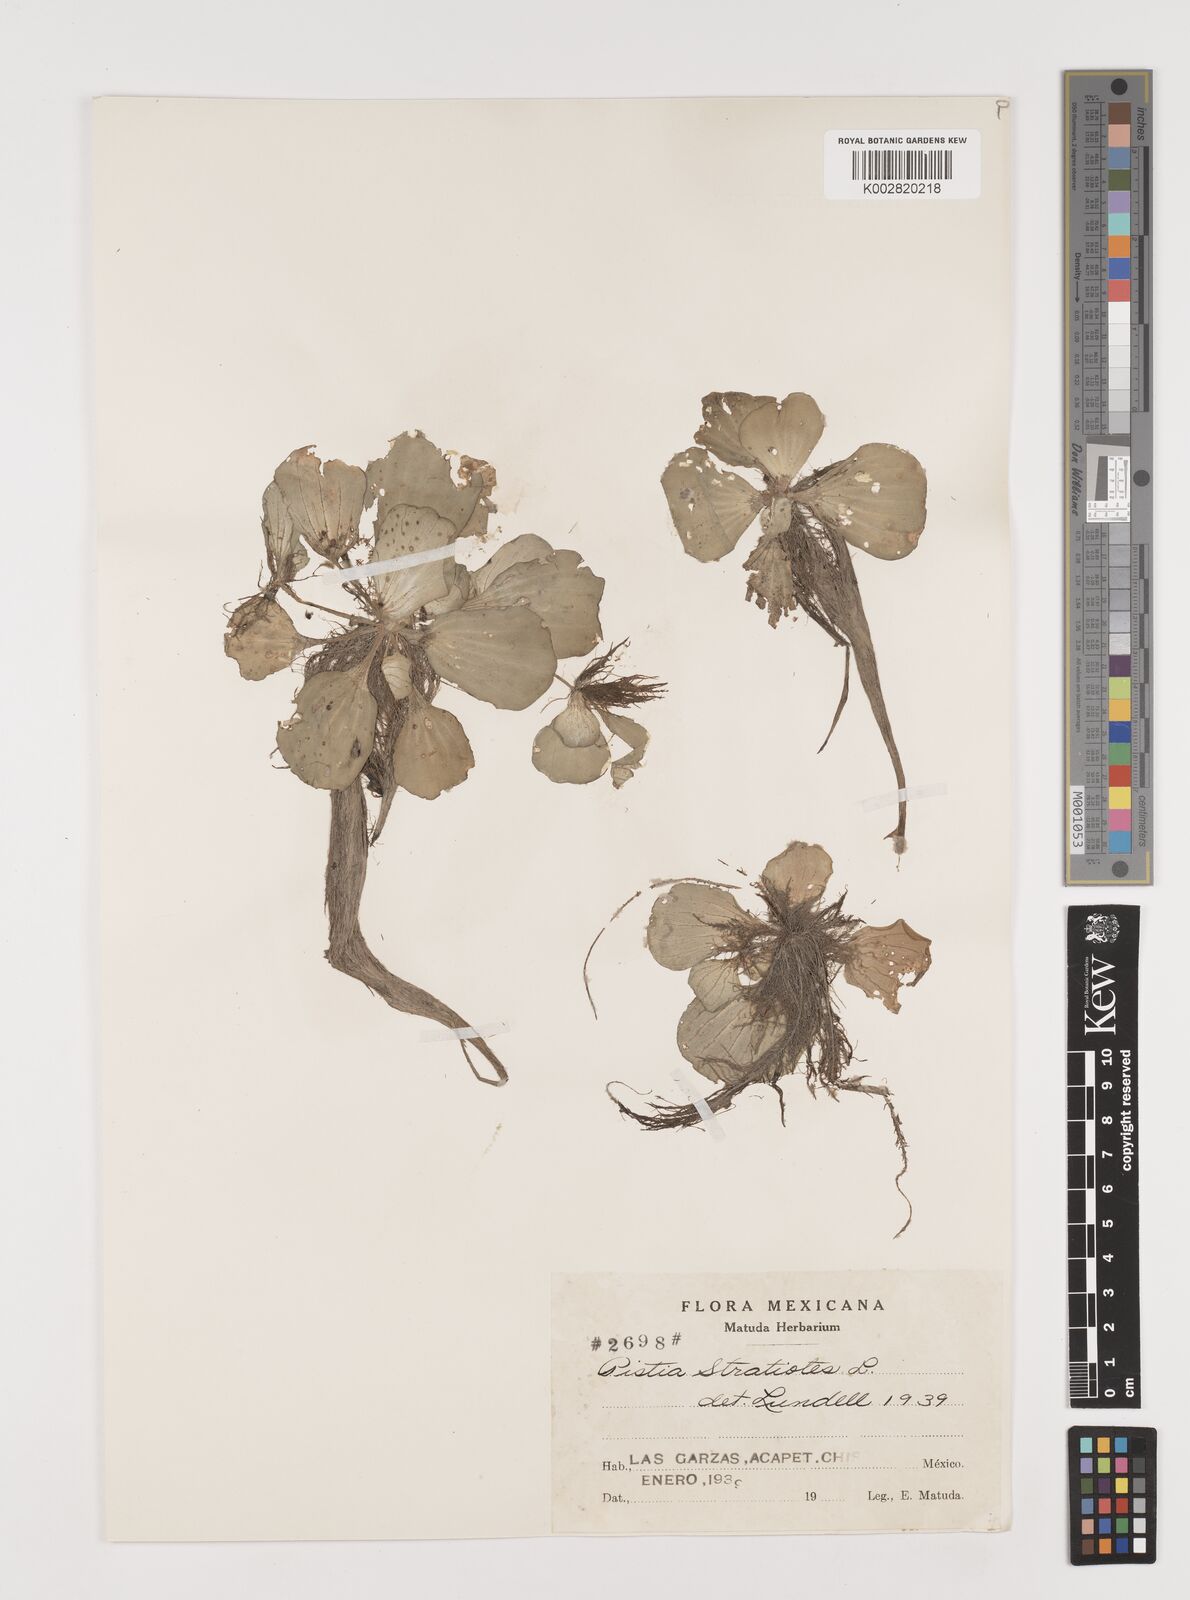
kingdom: Plantae
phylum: Tracheophyta
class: Liliopsida
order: Alismatales
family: Araceae
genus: Pistia
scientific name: Pistia stratiotes
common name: Water lettuce
